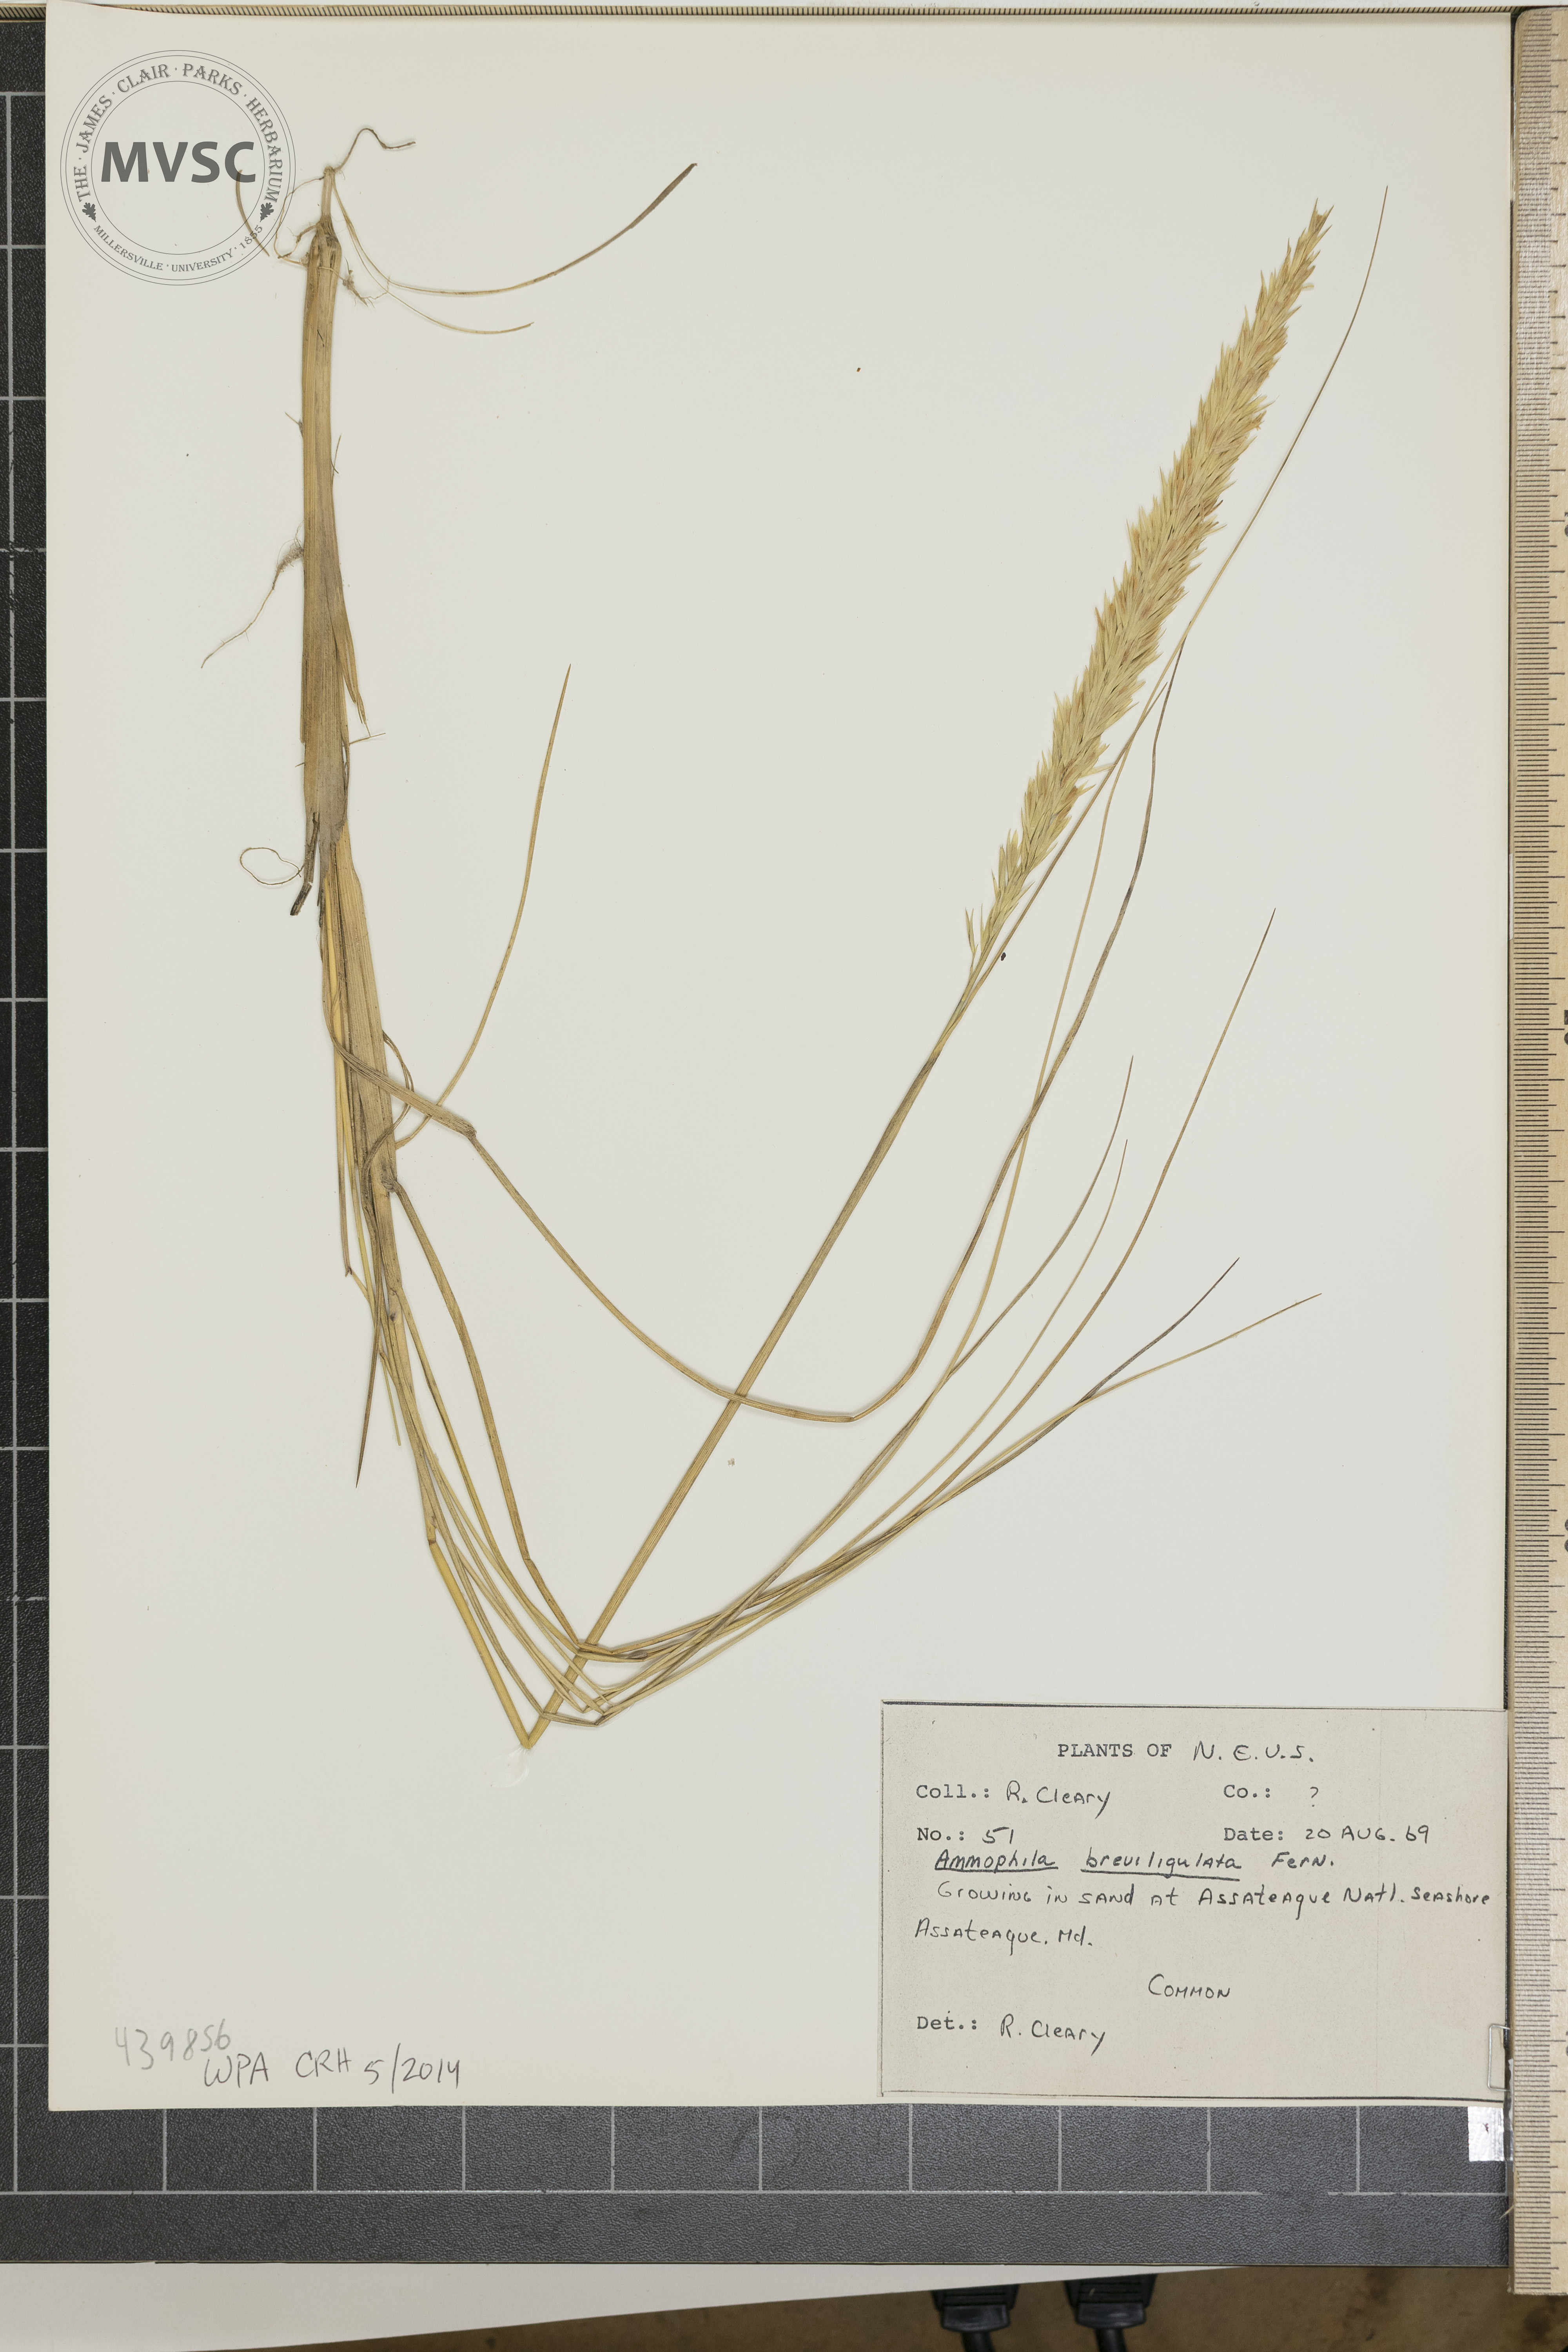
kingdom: Plantae
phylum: Tracheophyta
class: Liliopsida
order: Poales
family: Poaceae
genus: Calamagrostis
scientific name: Calamagrostis breviligulata
